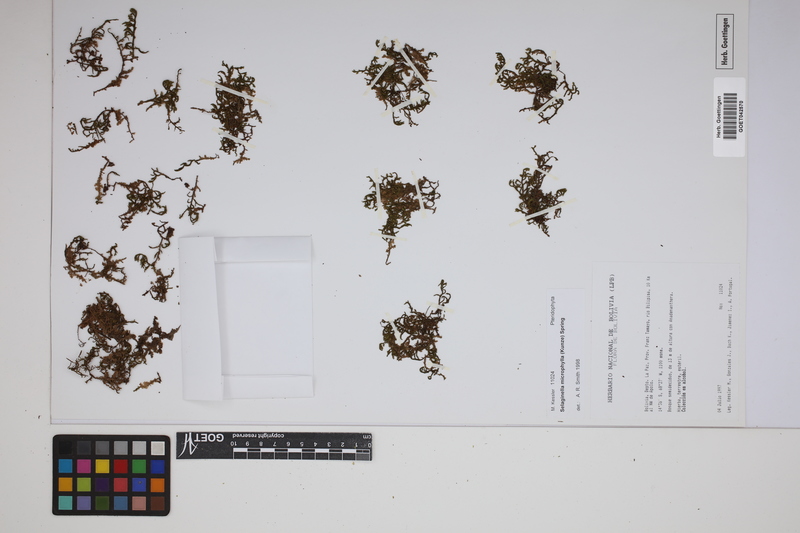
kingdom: Plantae
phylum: Tracheophyta
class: Lycopodiopsida
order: Selaginellales
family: Selaginellaceae
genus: Selaginella
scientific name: Selaginella microphylla
